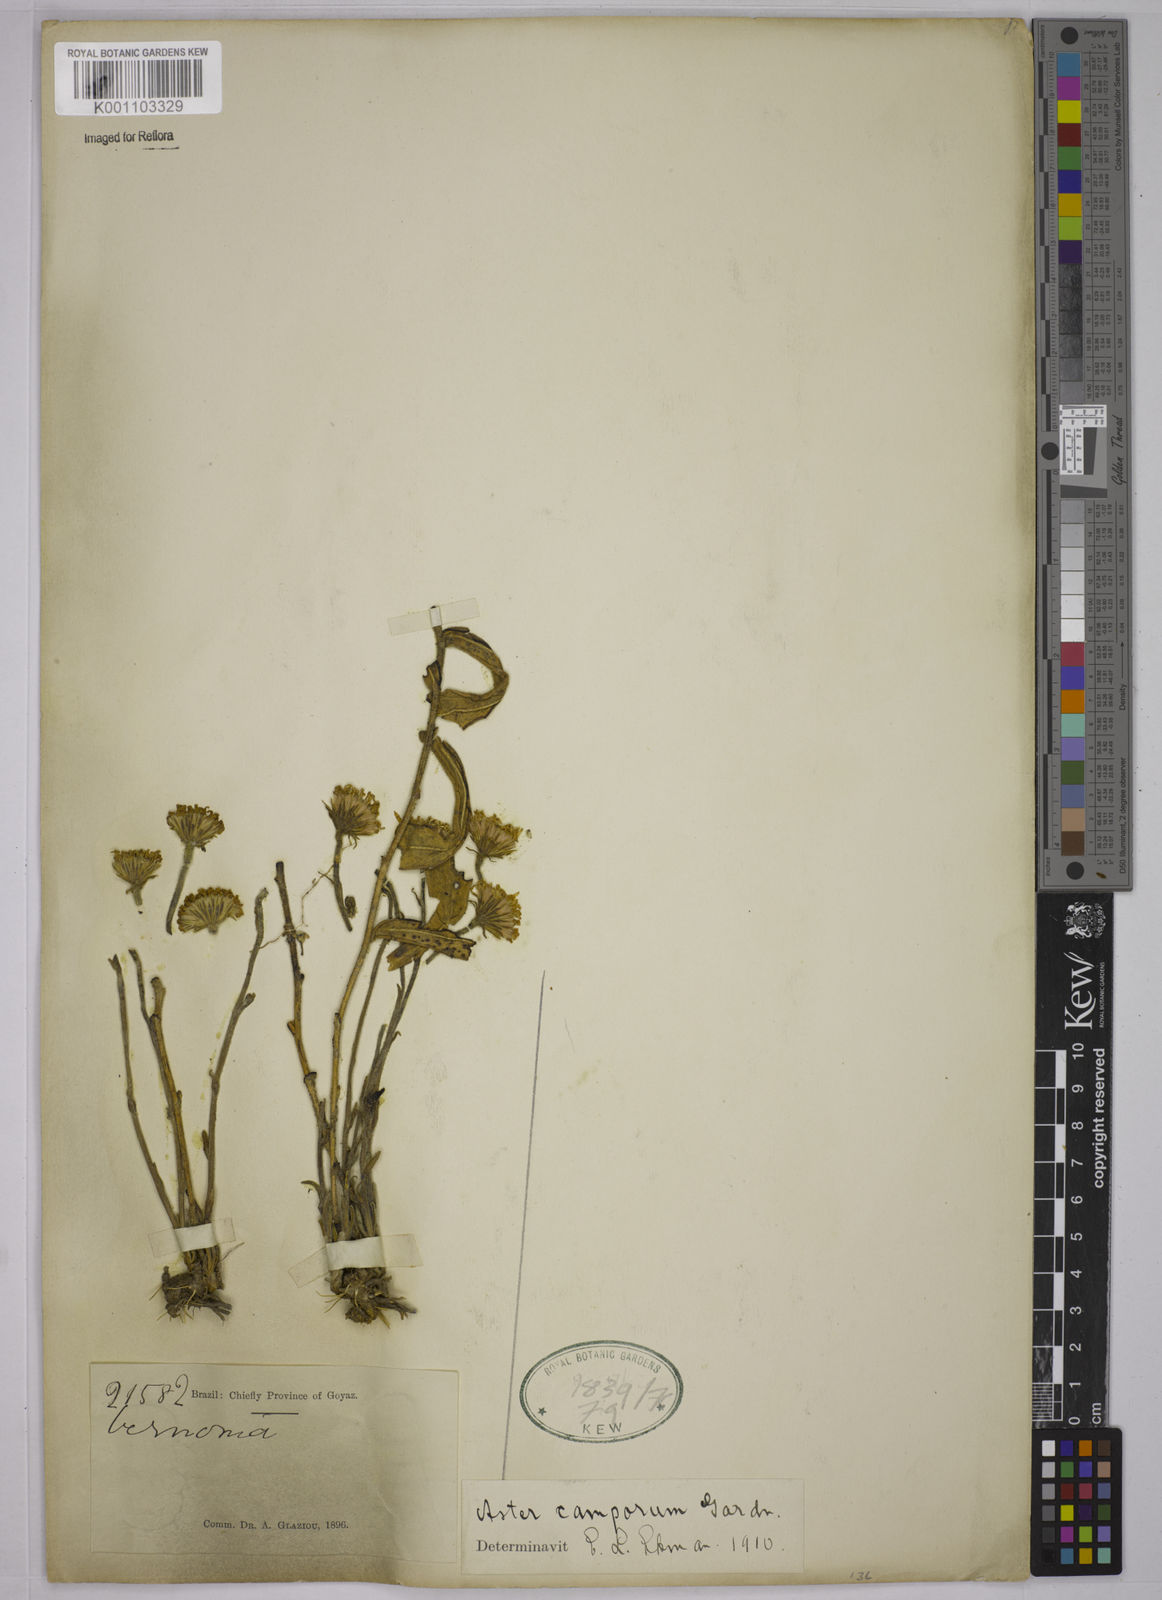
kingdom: Plantae
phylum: Tracheophyta
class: Magnoliopsida
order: Asterales
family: Asteraceae
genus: Inulopsis
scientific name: Inulopsis camporum
